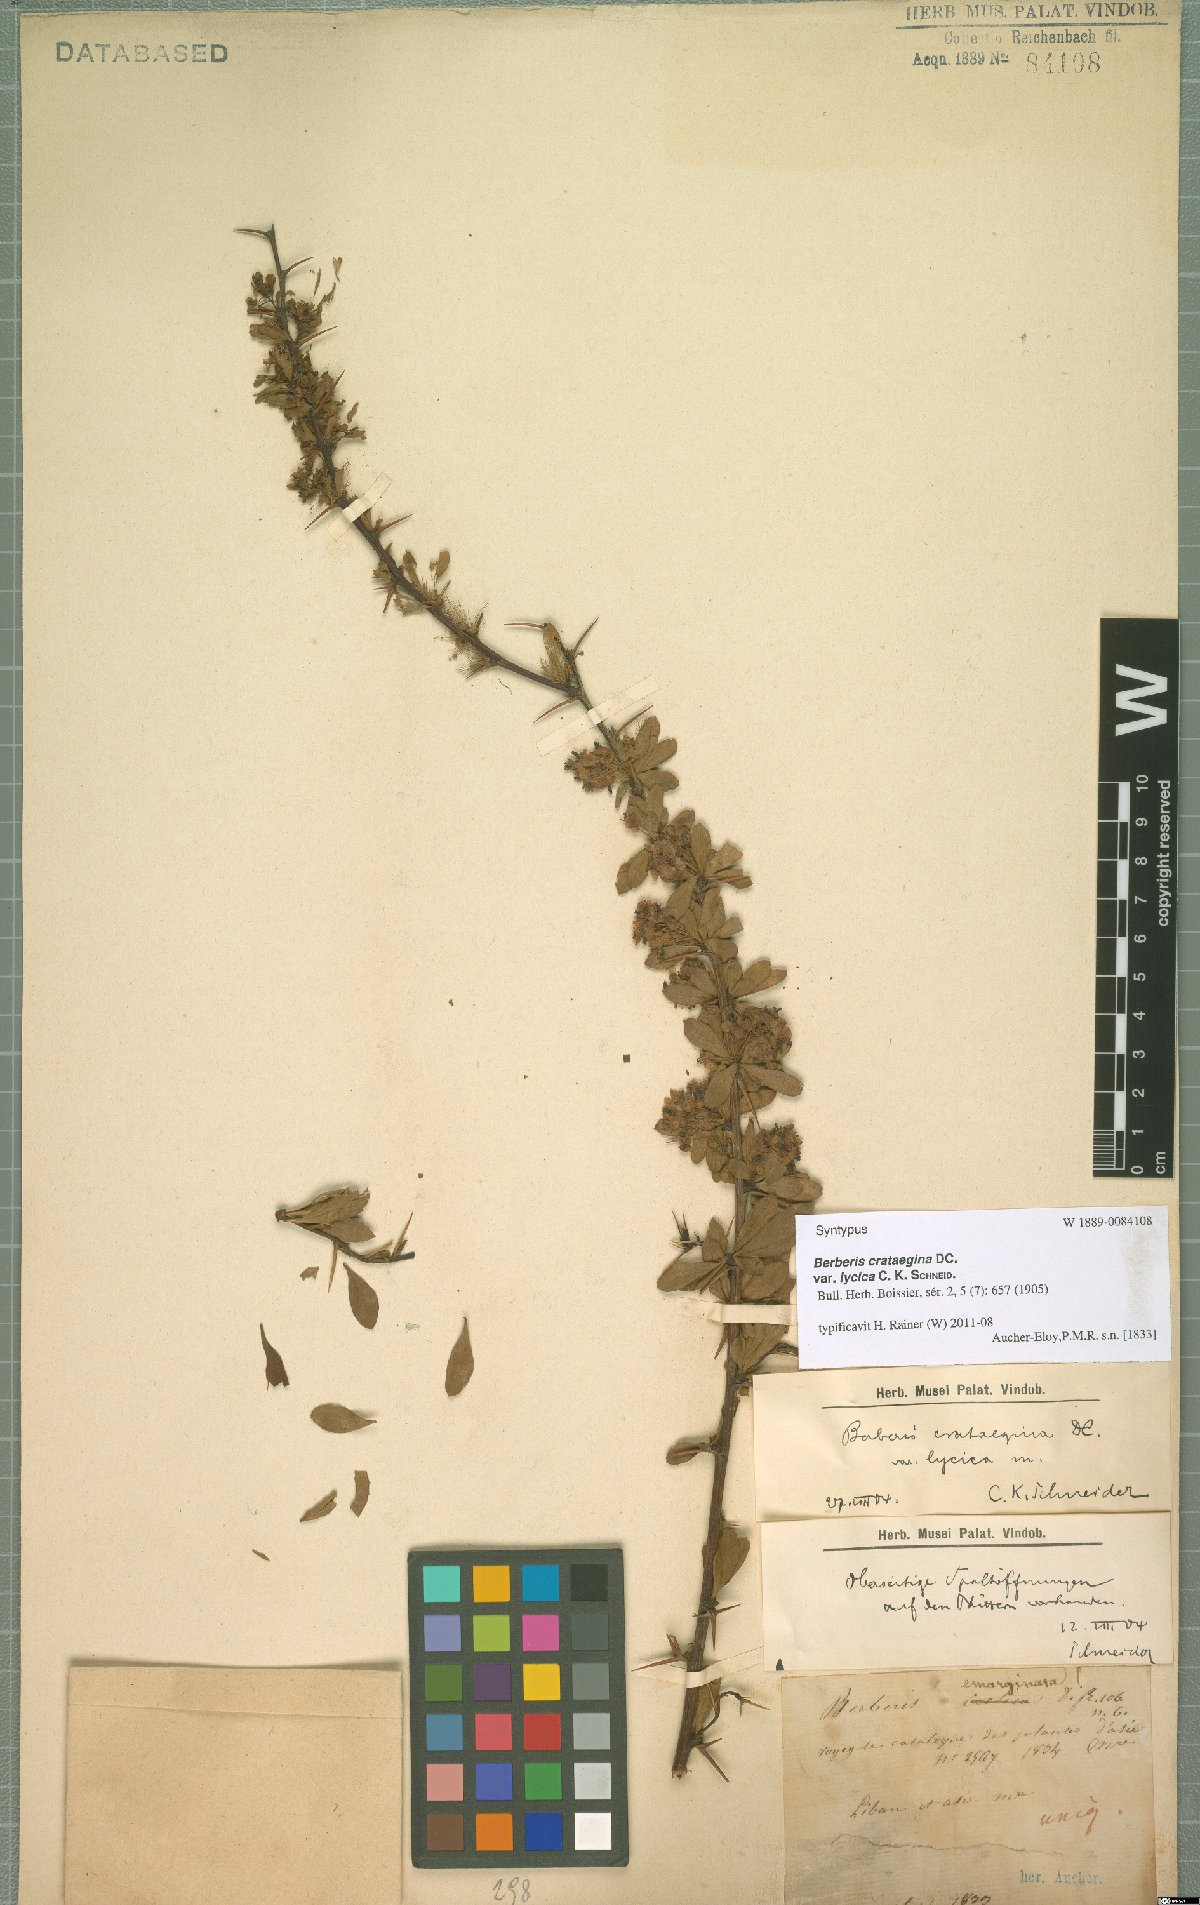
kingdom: Plantae
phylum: Tracheophyta
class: Magnoliopsida
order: Ranunculales
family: Berberidaceae
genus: Berberis
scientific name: Berberis crataegina
